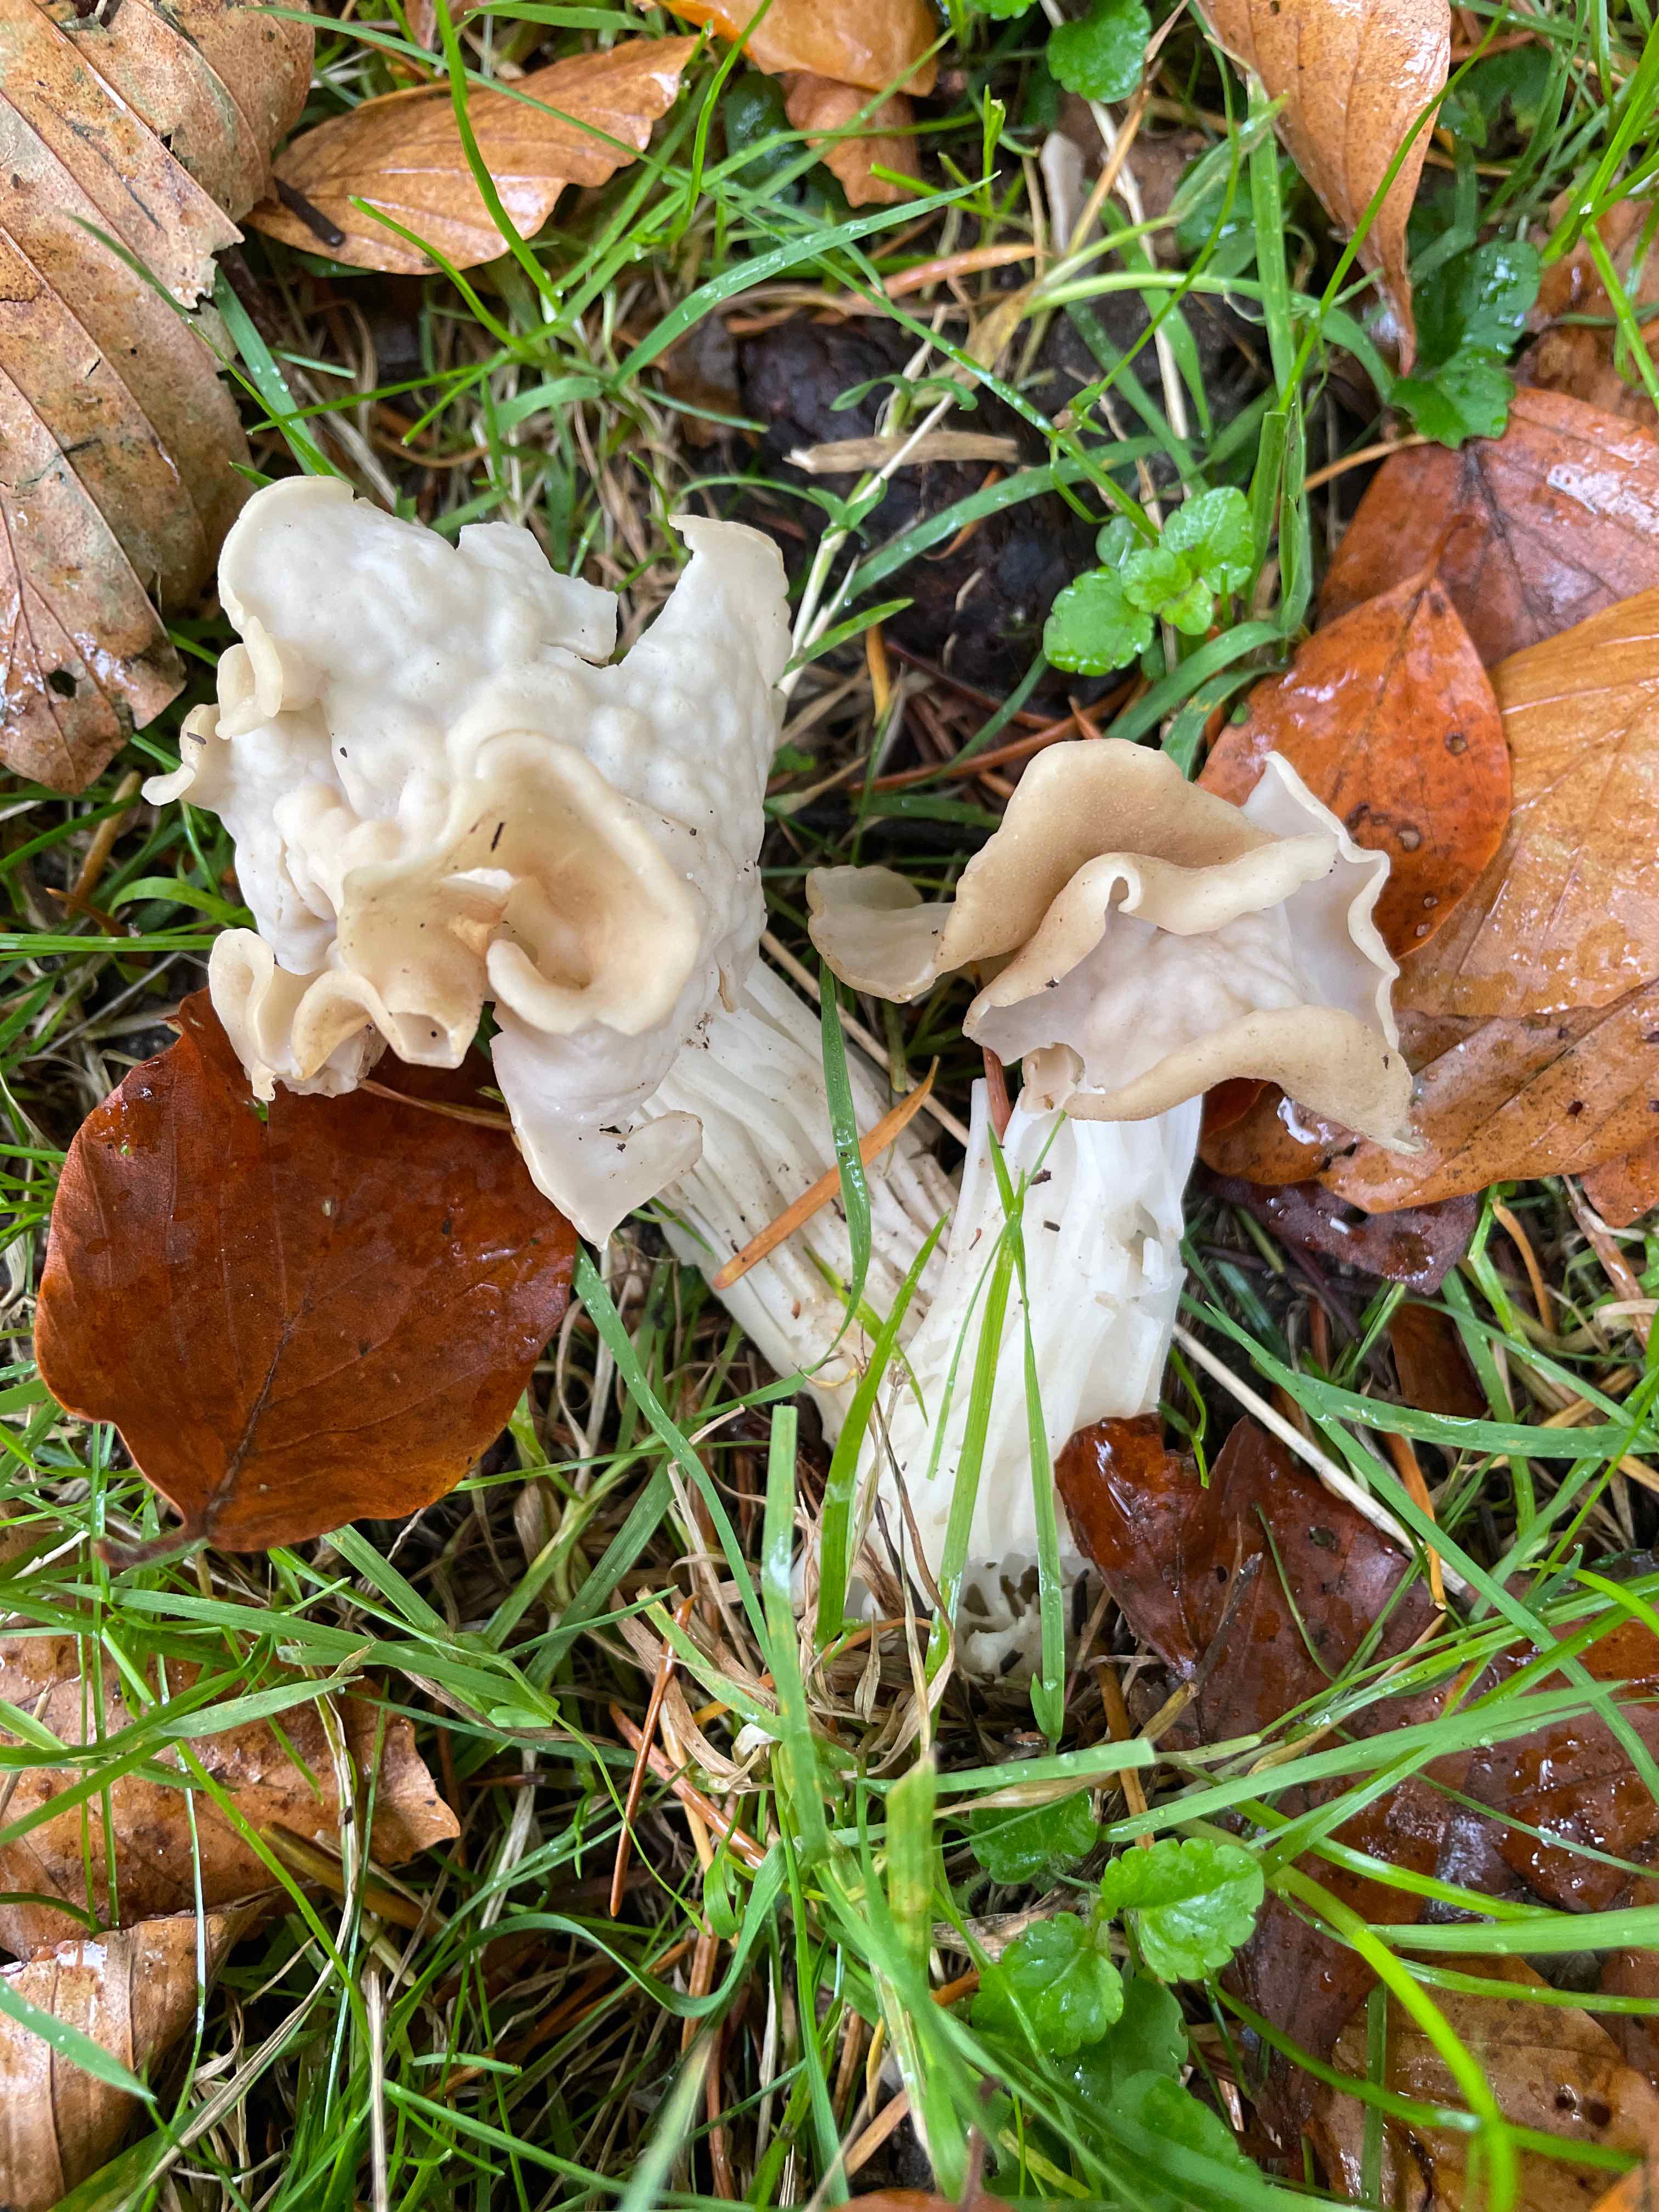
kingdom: Fungi
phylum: Ascomycota
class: Pezizomycetes
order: Pezizales
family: Helvellaceae
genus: Helvella
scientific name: Helvella crispa
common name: kruset foldhat
